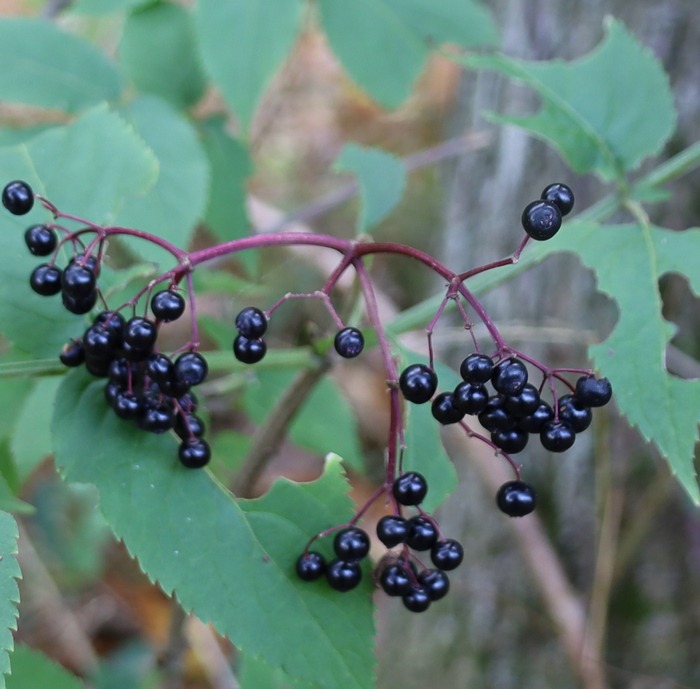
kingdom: Plantae
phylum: Tracheophyta
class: Magnoliopsida
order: Dipsacales
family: Viburnaceae
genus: Sambucus
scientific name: Sambucus nigra
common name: Almindelig hyld
